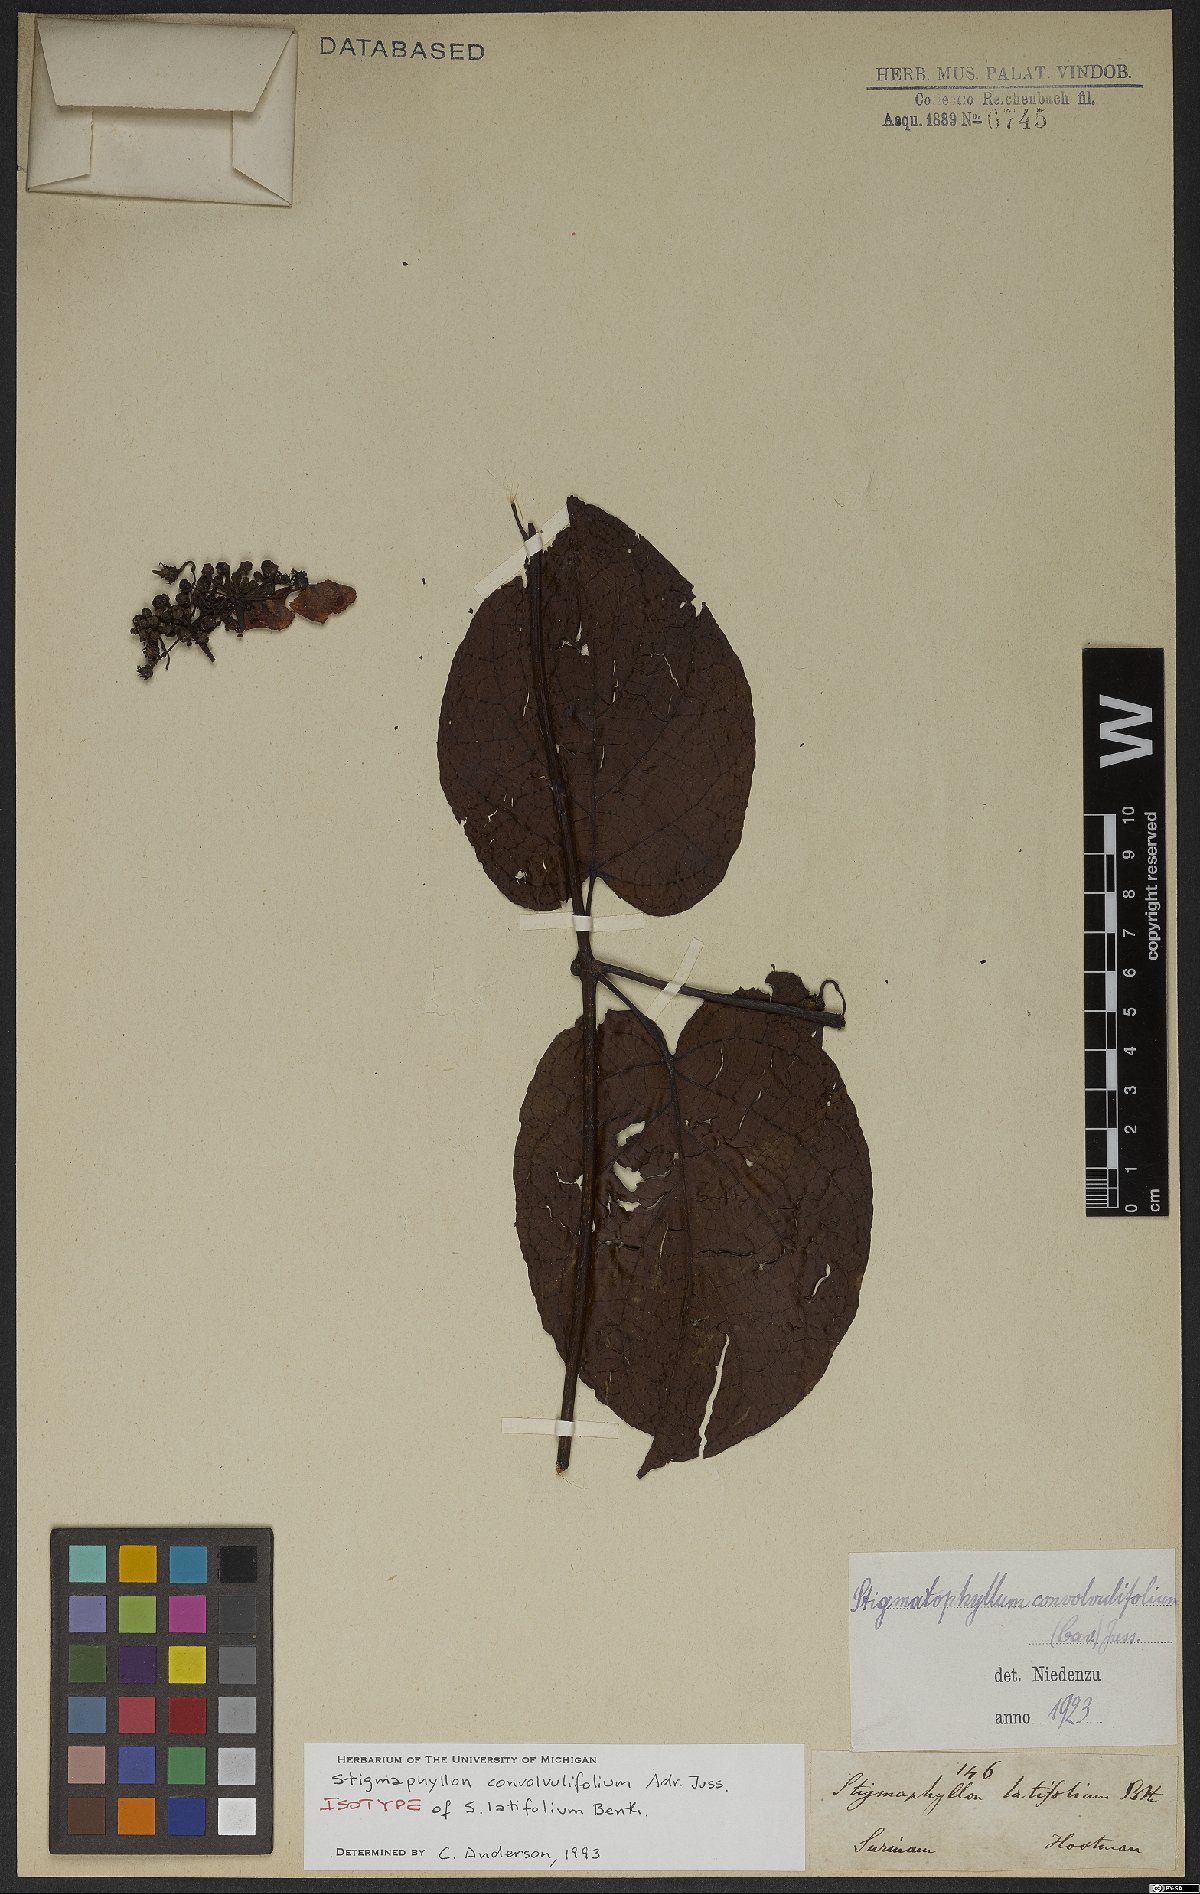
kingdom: Plantae
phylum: Tracheophyta
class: Magnoliopsida
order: Malpighiales
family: Malpighiaceae
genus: Stigmaphyllon
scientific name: Stigmaphyllon convolvulifolium
